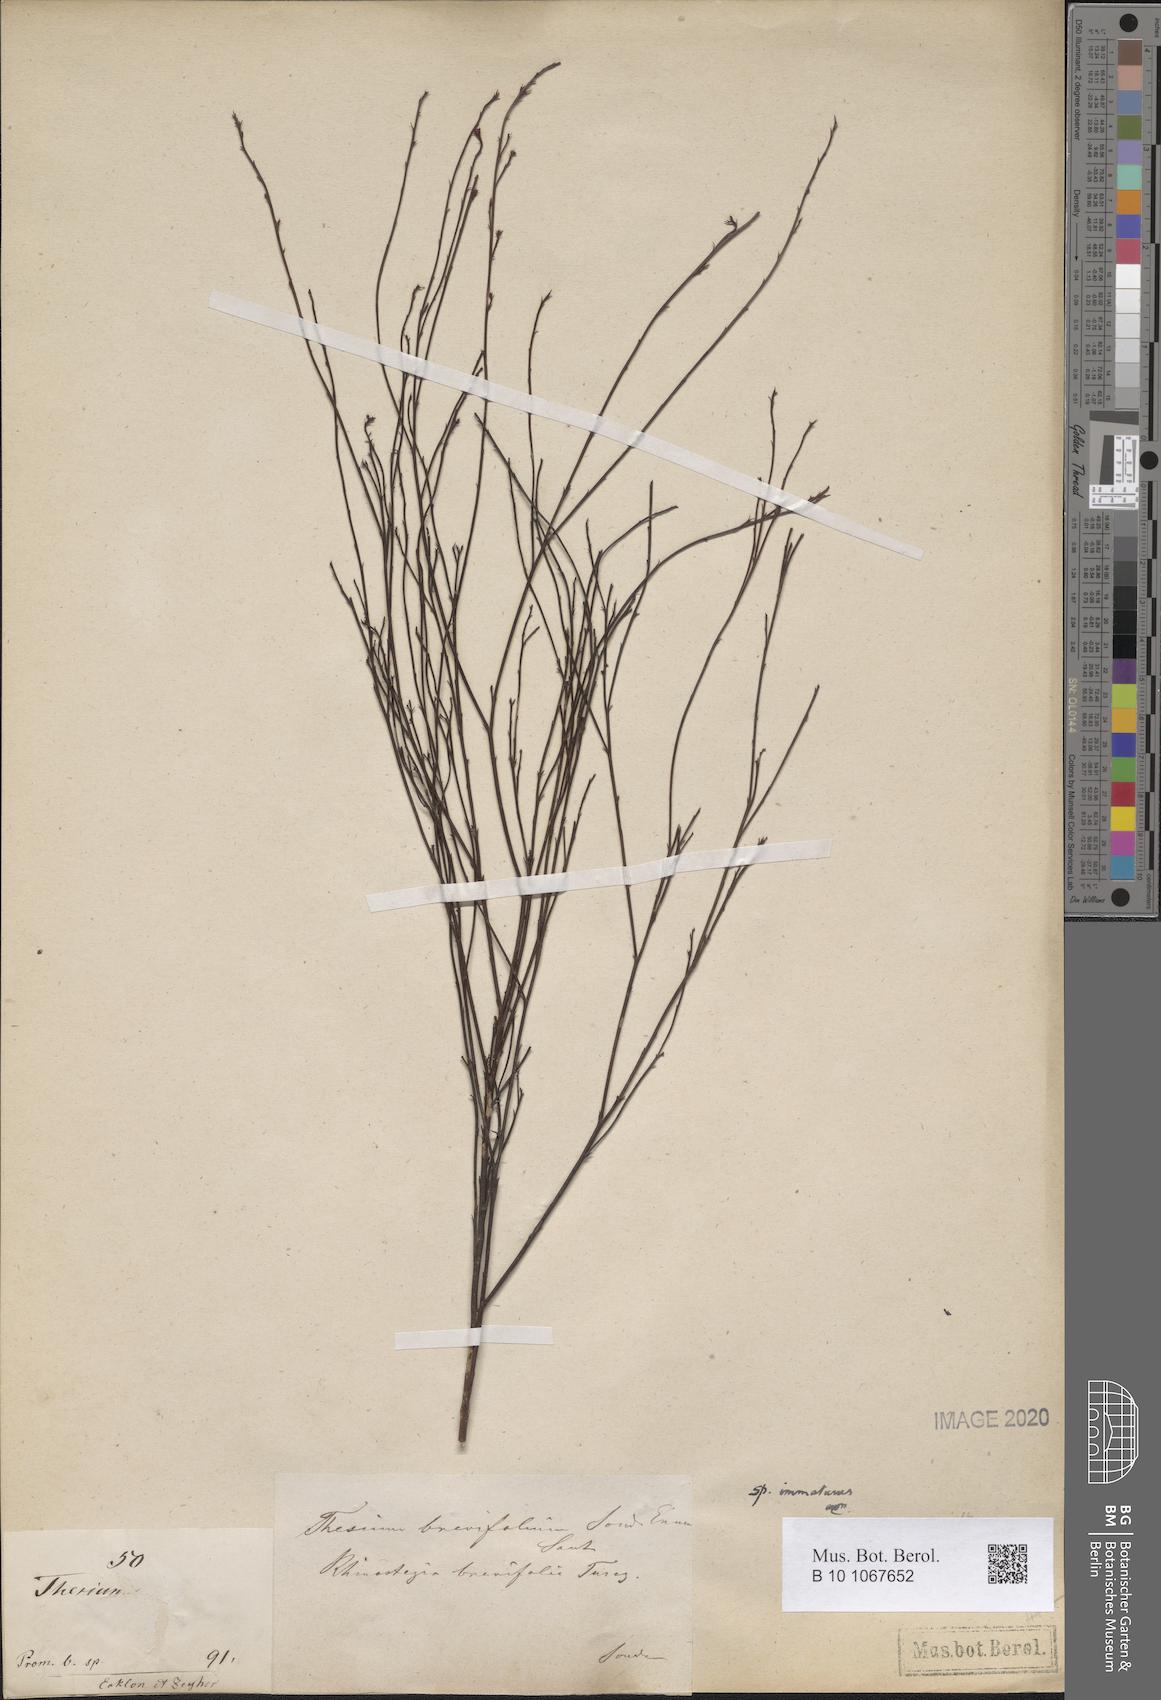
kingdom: Plantae
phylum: Tracheophyta
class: Magnoliopsida
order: Santalales
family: Thesiaceae
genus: Thesium
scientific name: Thesium leptocaule
